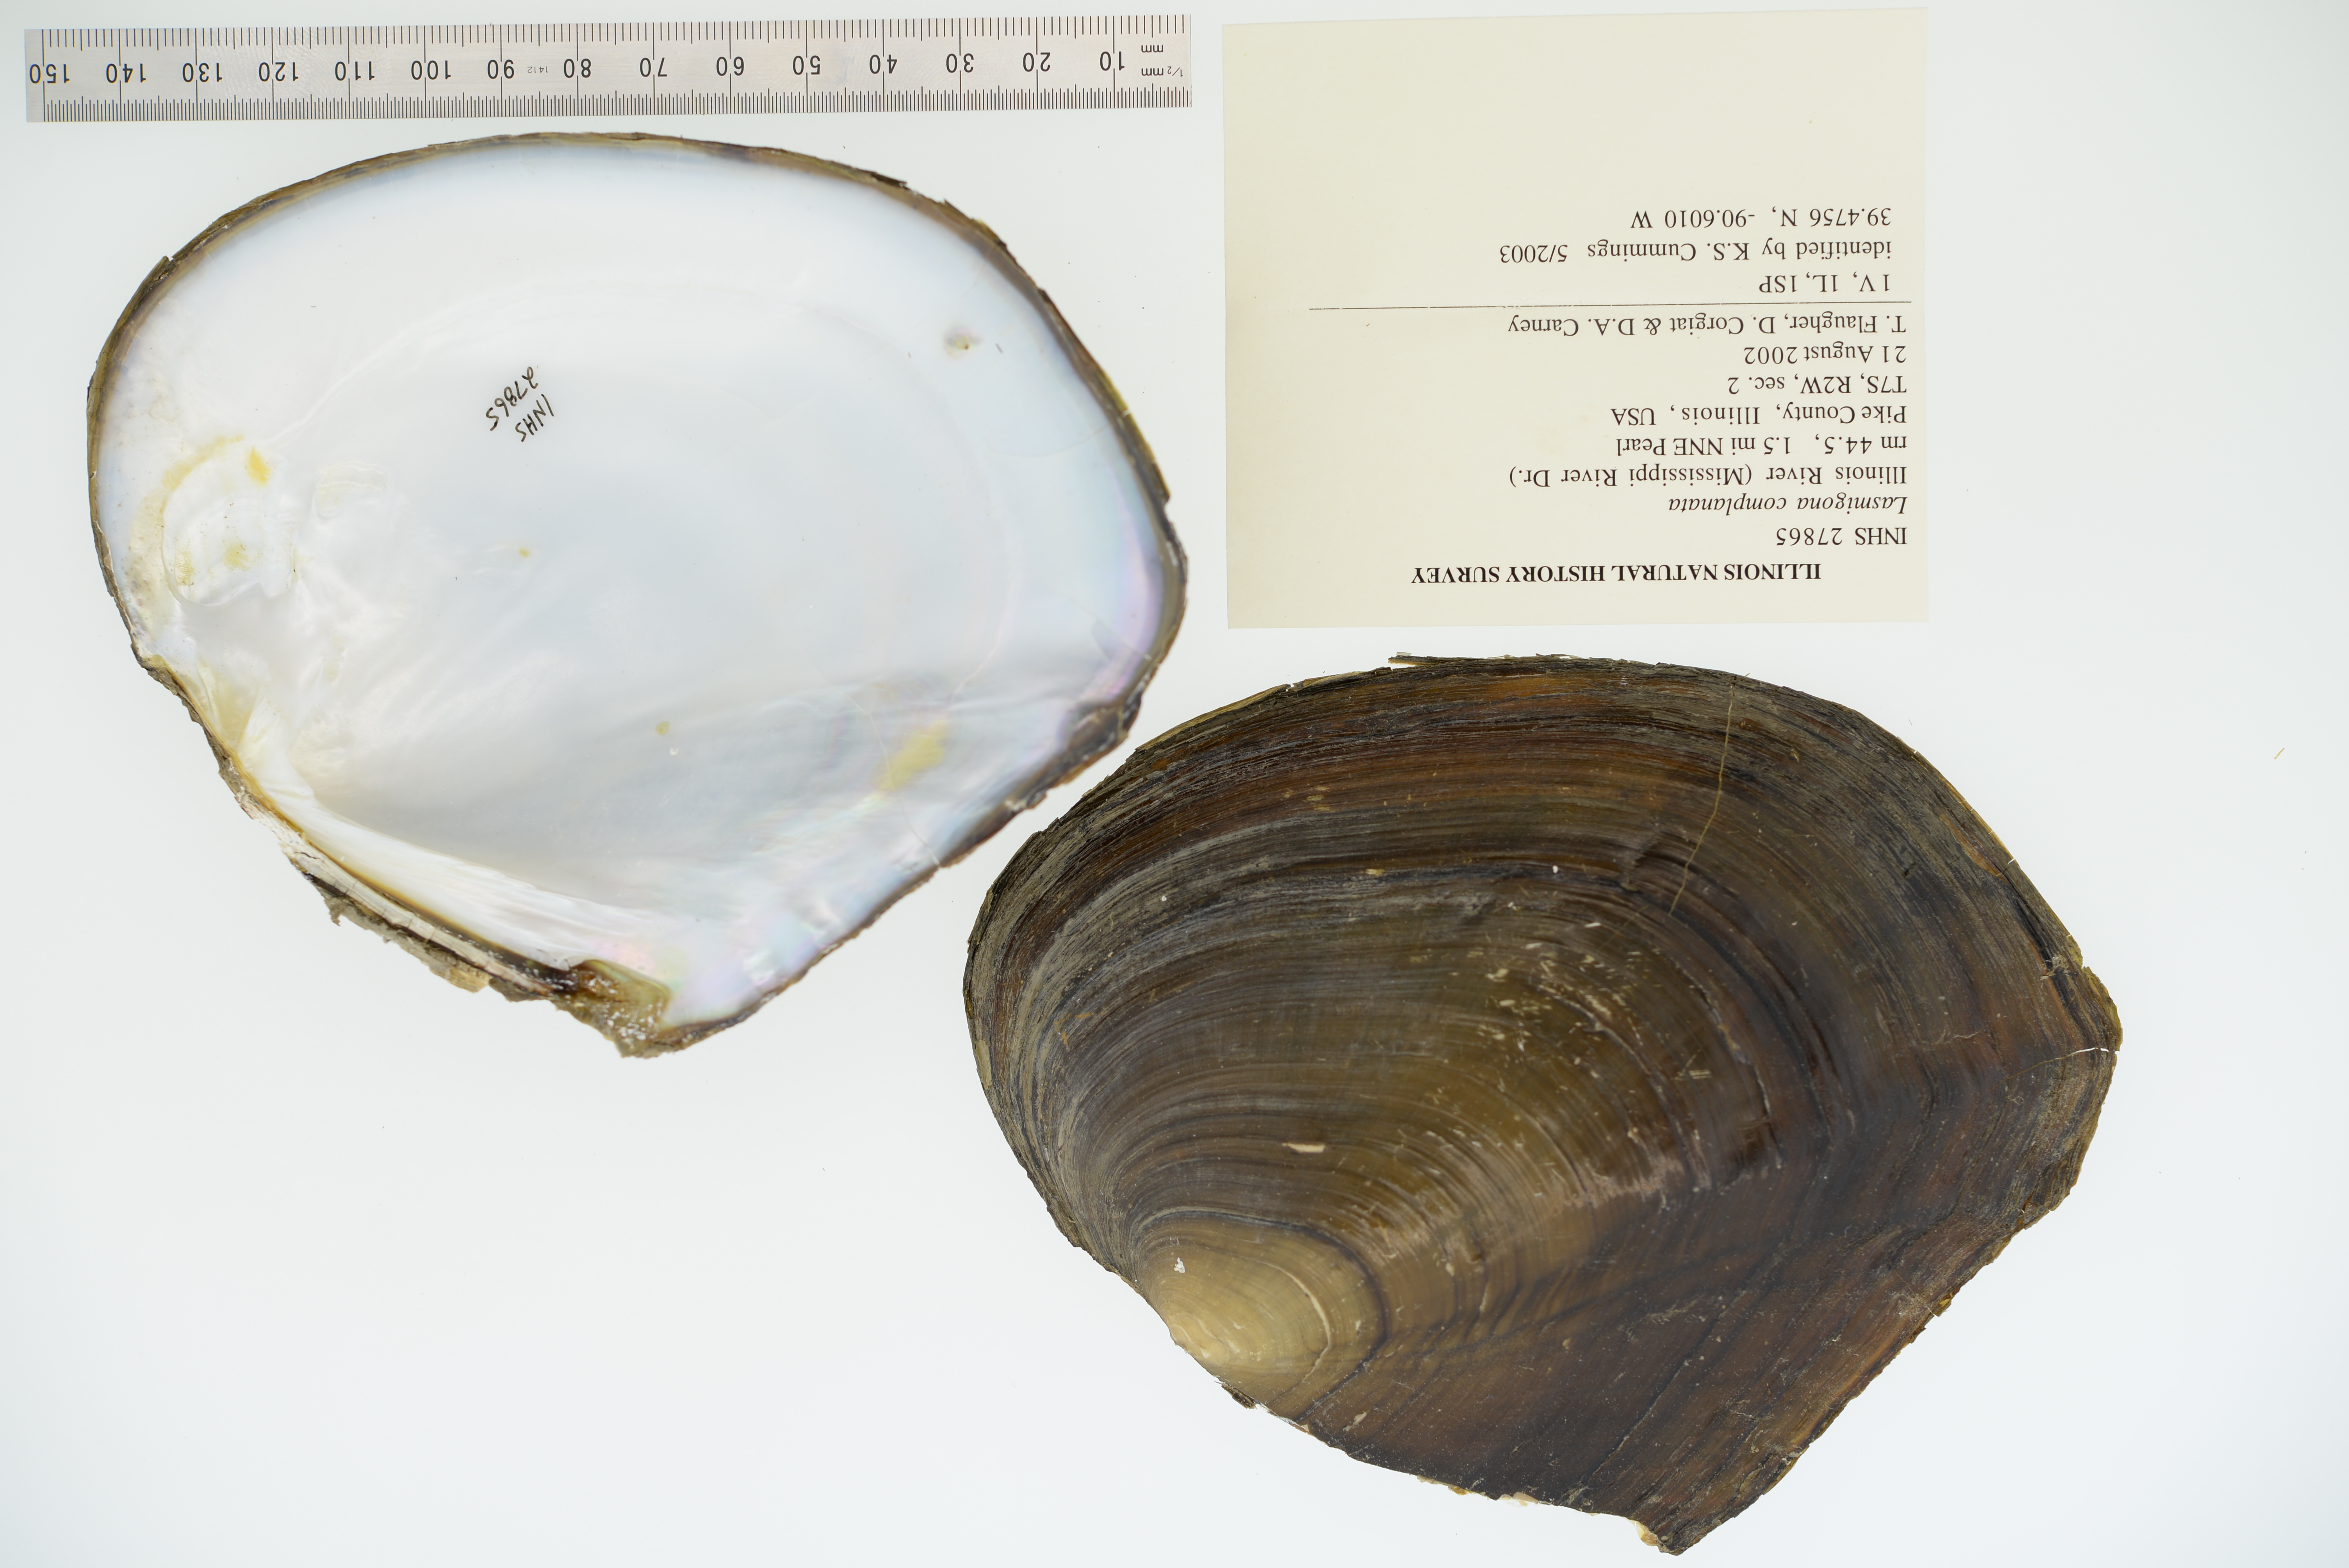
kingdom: Animalia
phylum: Mollusca
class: Bivalvia
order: Unionida
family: Unionidae
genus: Lasmigona
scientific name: Lasmigona complanata
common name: White heelsplitter
